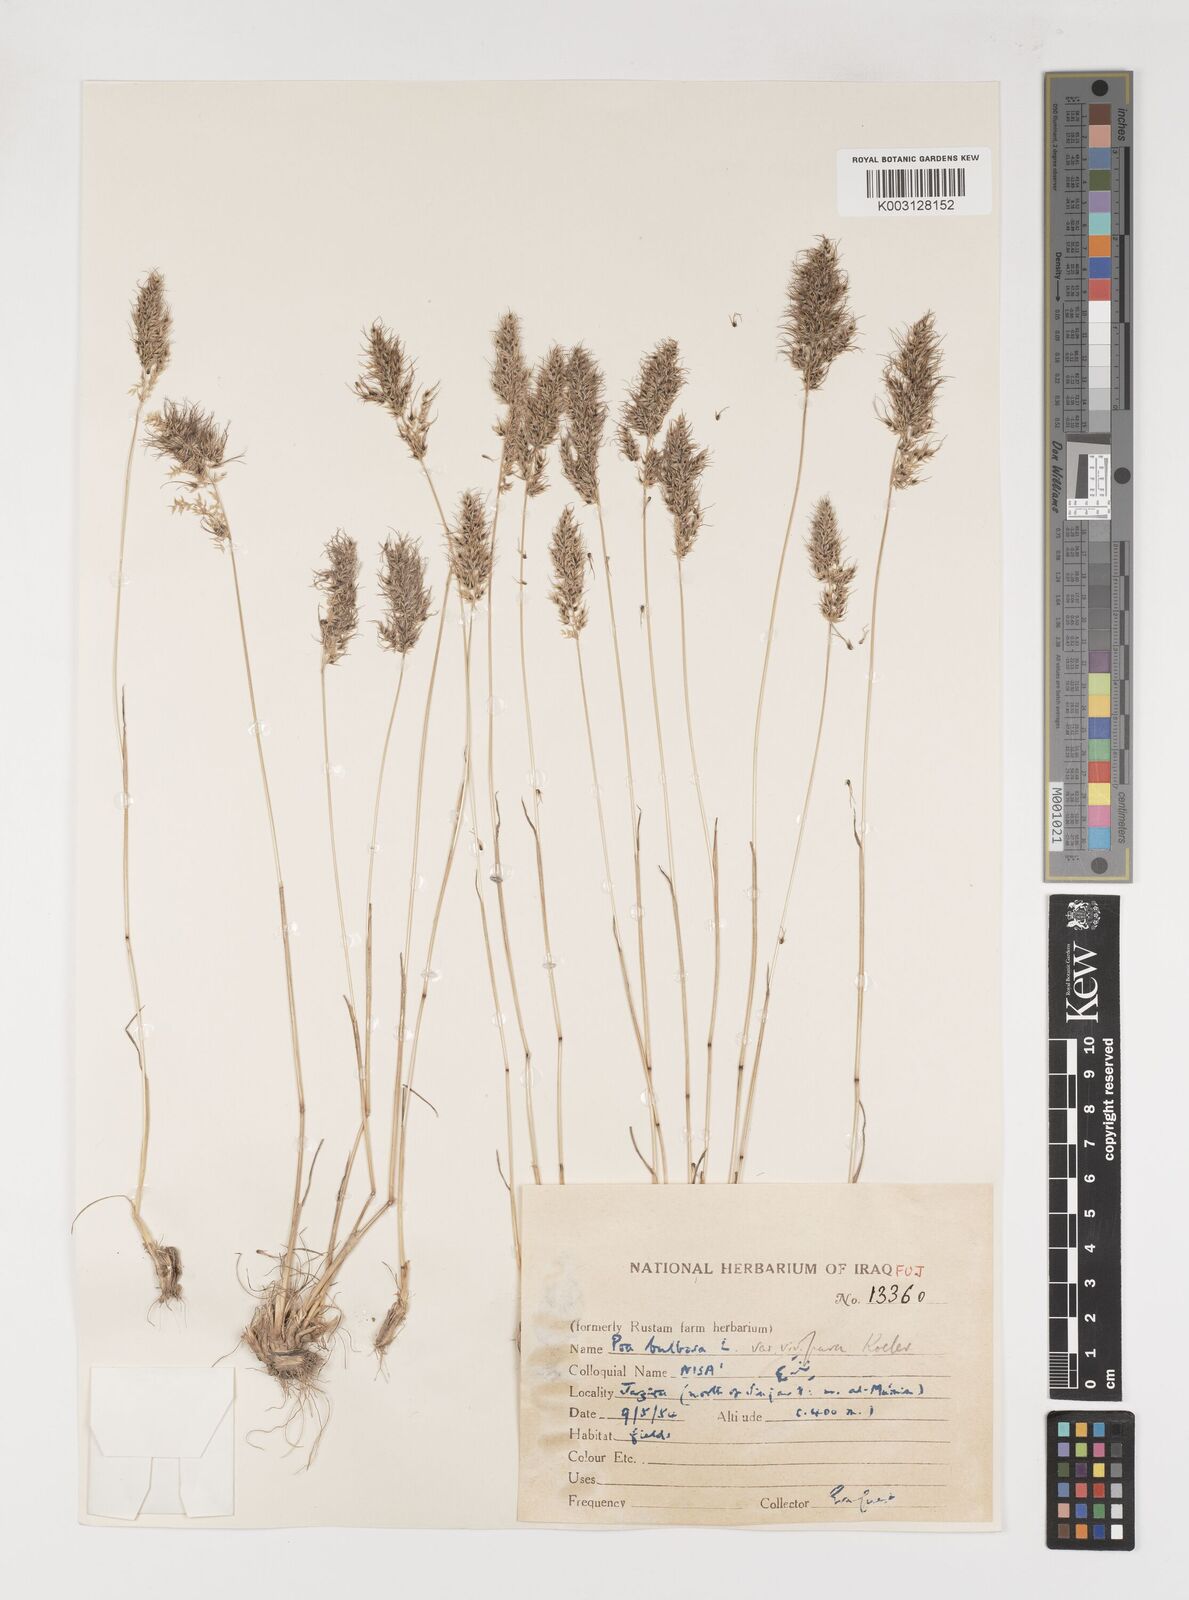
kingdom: Plantae
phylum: Tracheophyta
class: Liliopsida
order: Poales
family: Poaceae
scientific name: Poaceae
